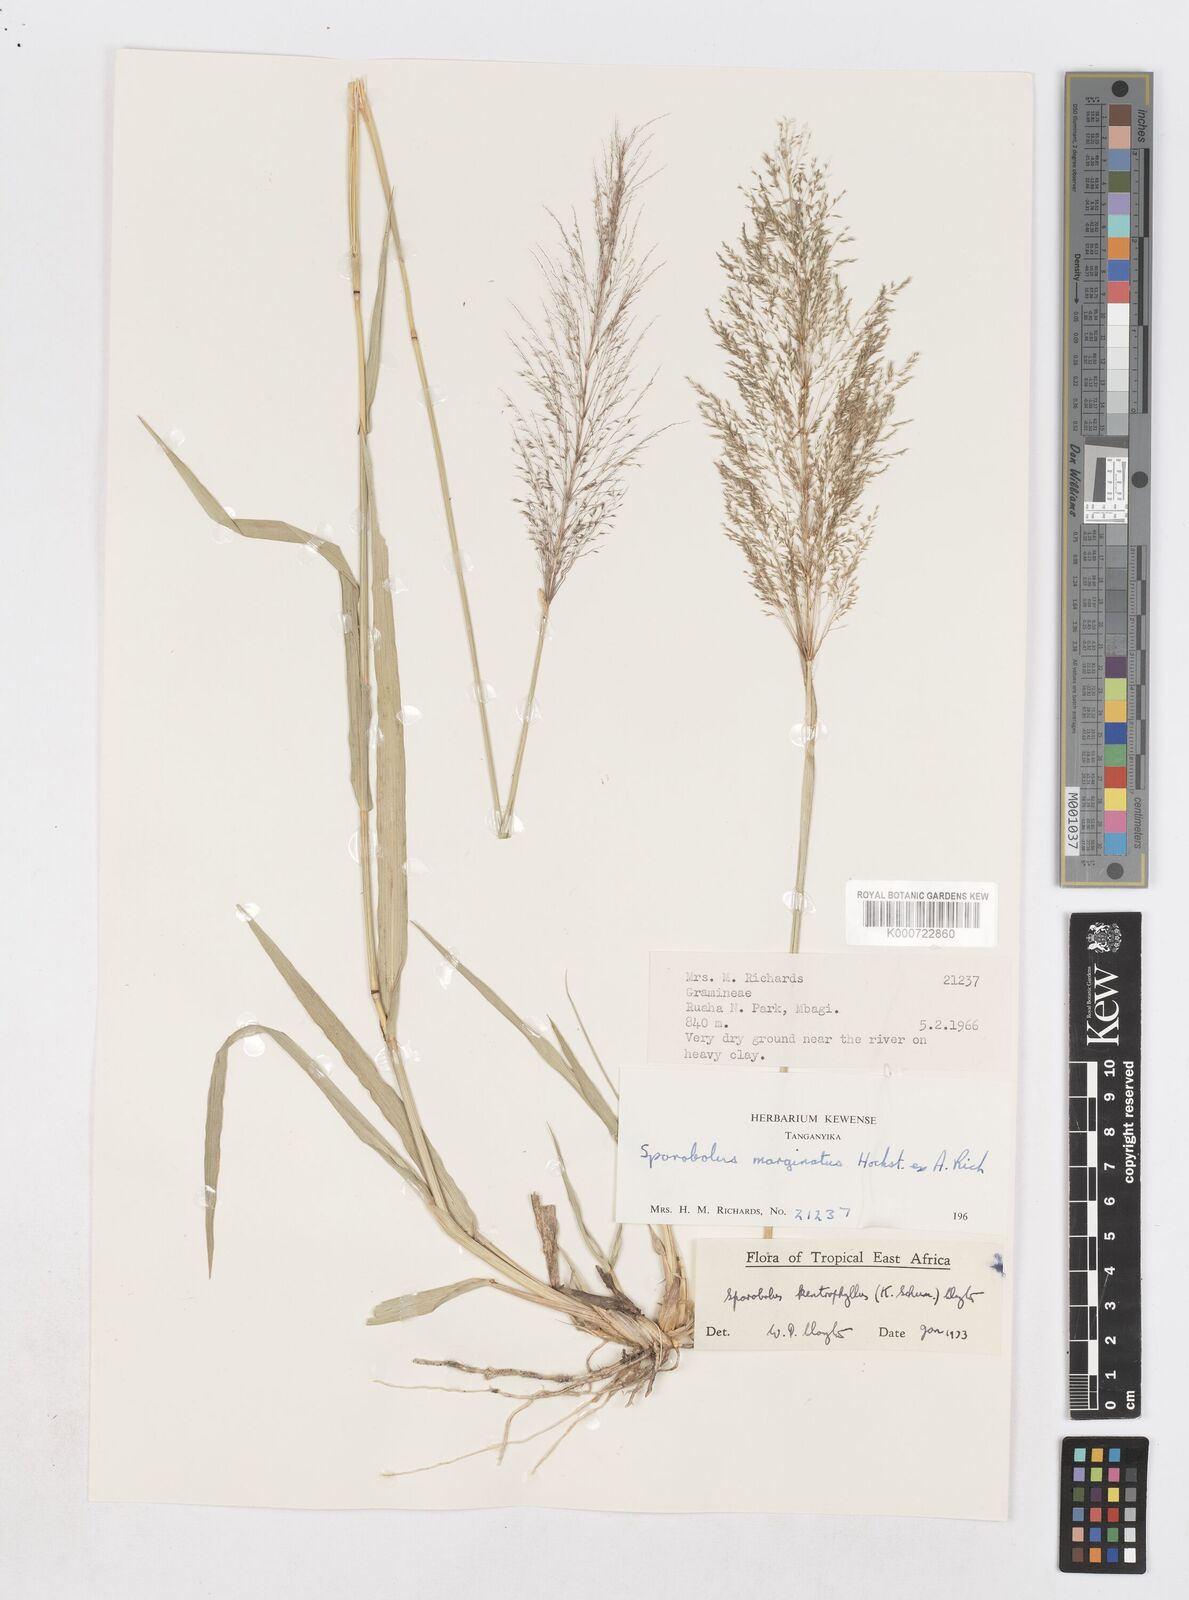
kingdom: Plantae
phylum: Tracheophyta
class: Liliopsida
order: Poales
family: Poaceae
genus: Sporobolus
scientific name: Sporobolus ioclados
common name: Pan dropseed
